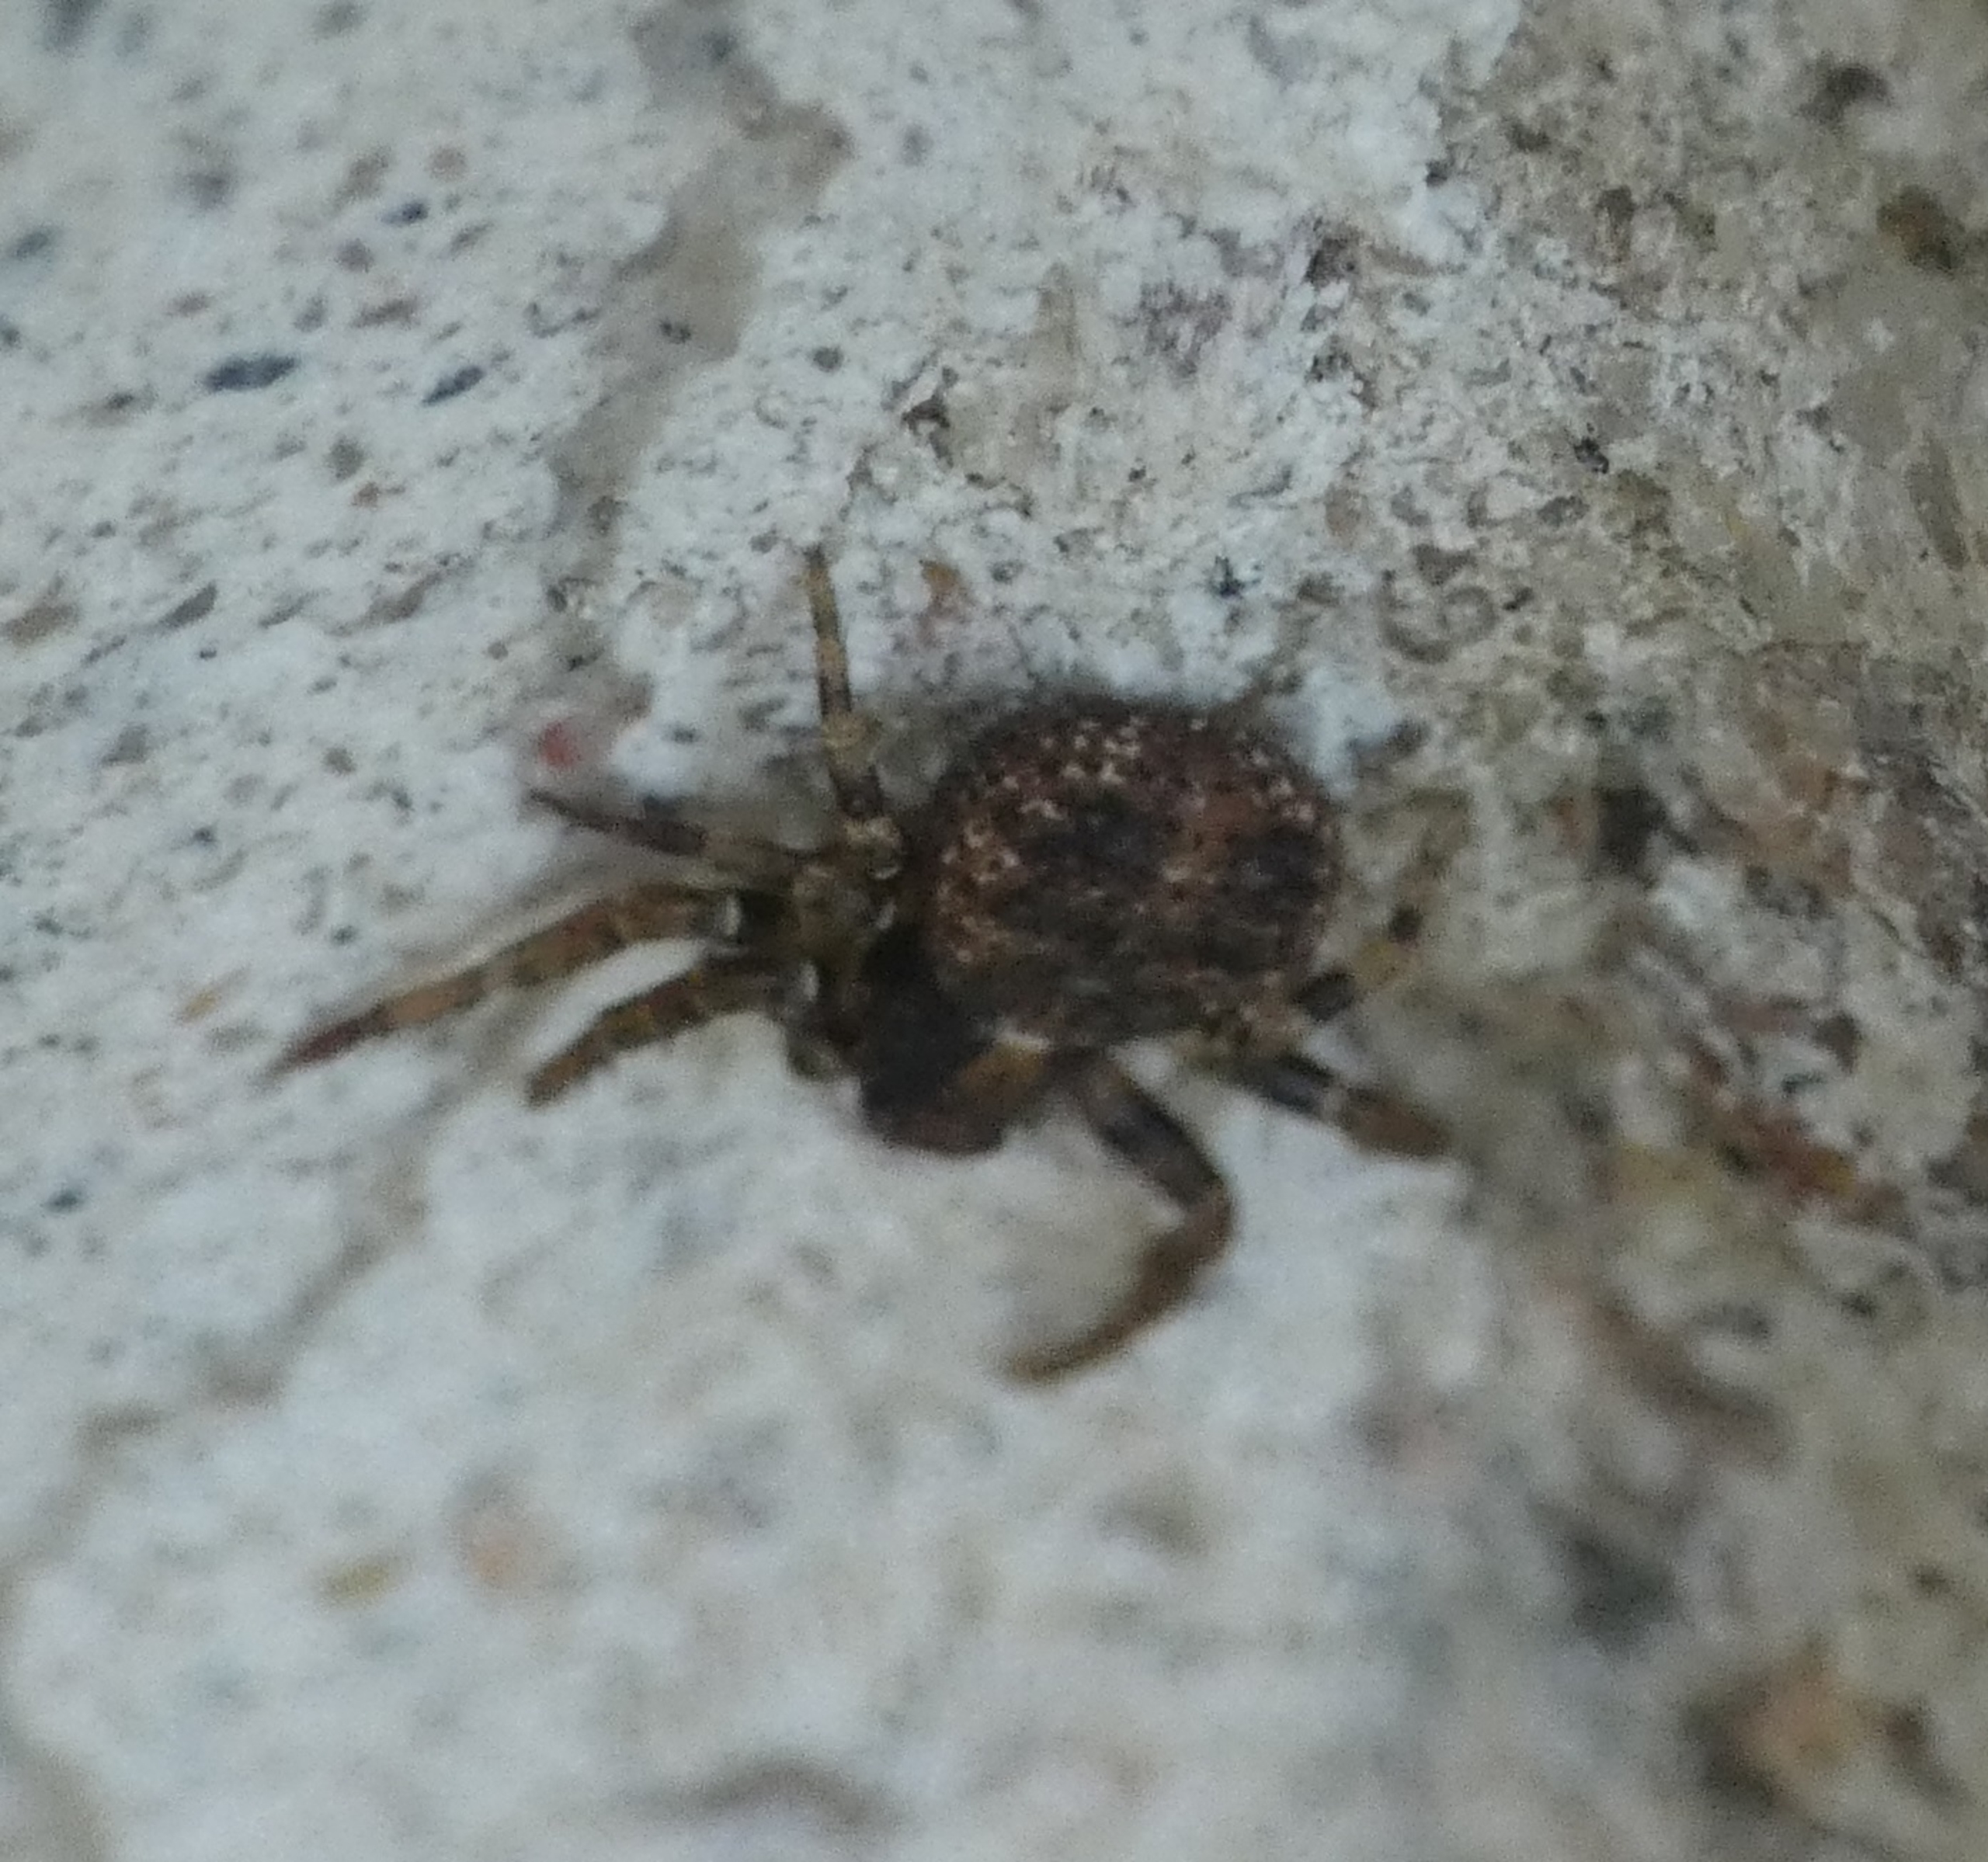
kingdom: Animalia
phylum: Arthropoda
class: Arachnida
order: Araneae
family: Thomisidae
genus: Ozyptila
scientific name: Ozyptila praticola
